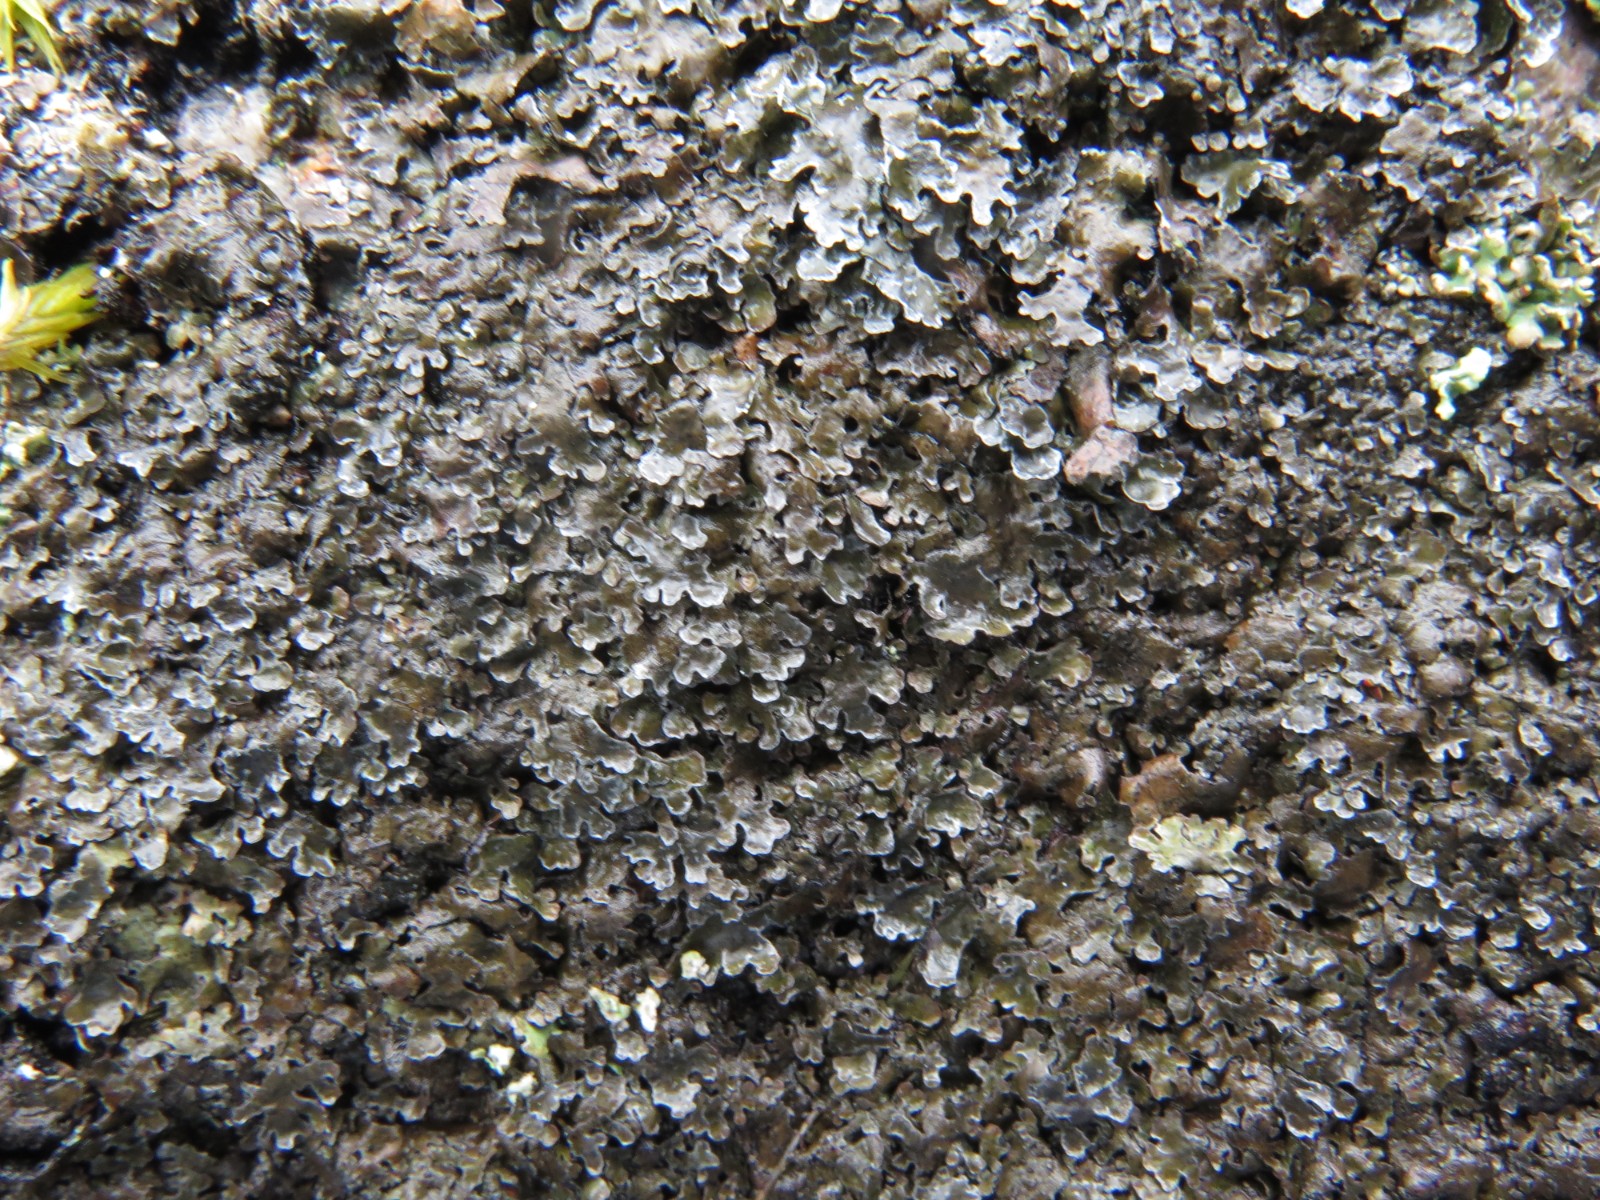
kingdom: Fungi
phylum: Ascomycota
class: Lecanoromycetes
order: Lecanorales
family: Parmeliaceae
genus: Parmelia
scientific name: Parmelia discordans
